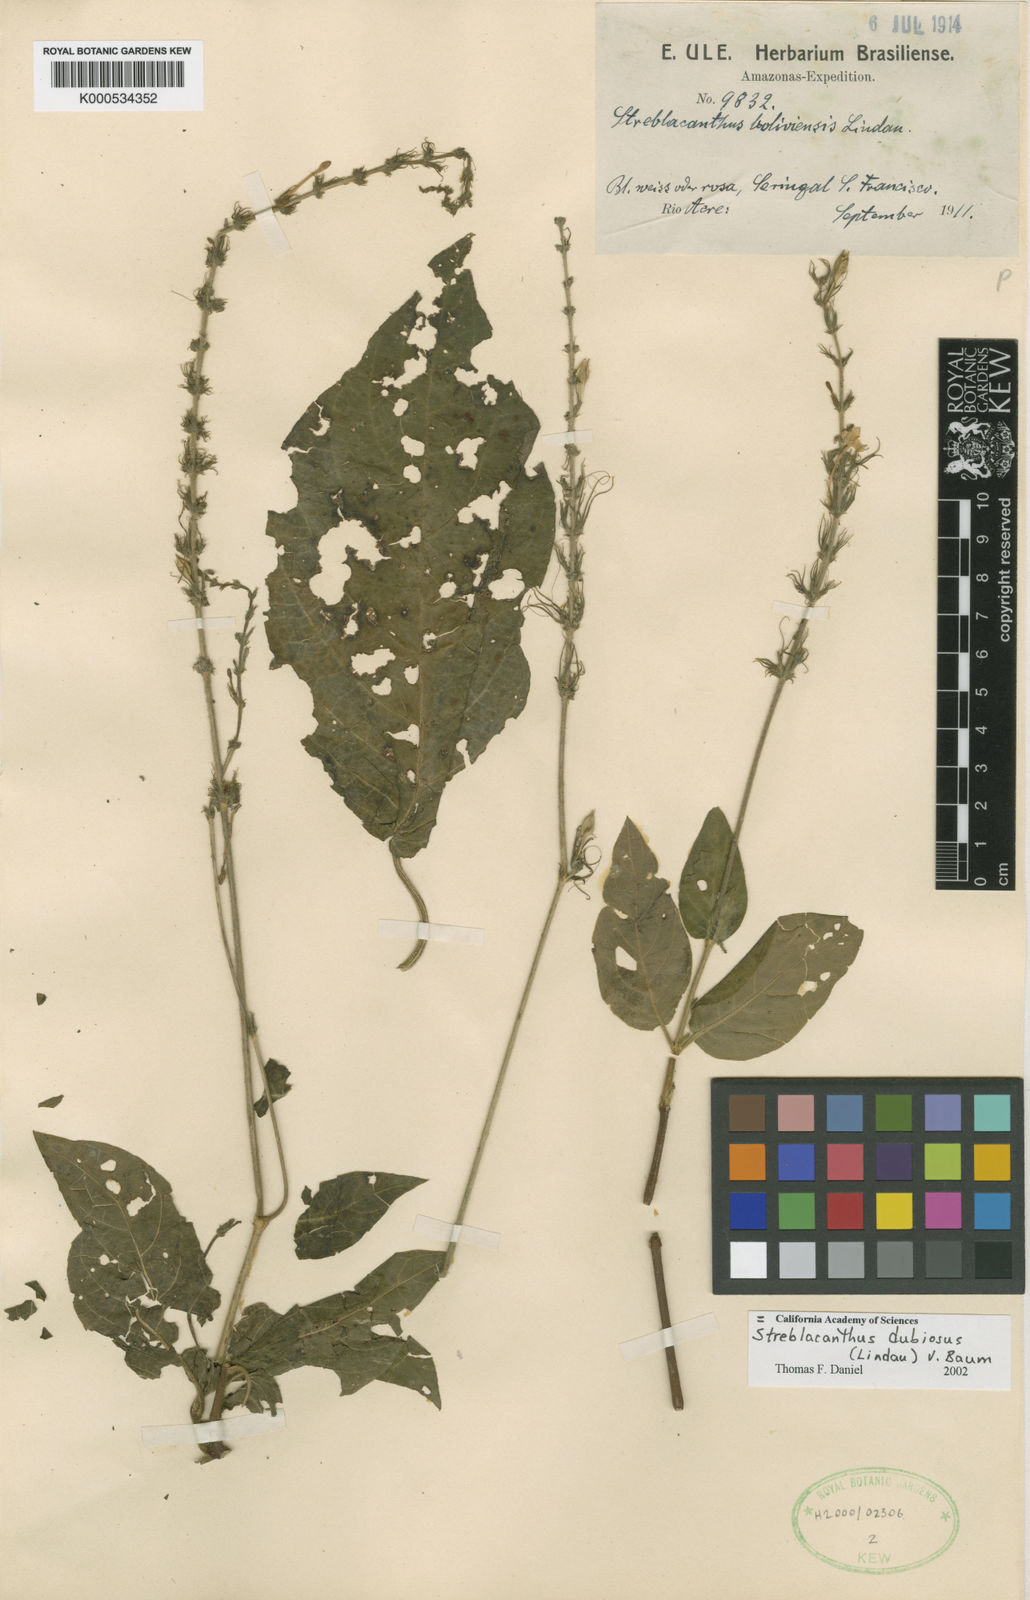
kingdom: Plantae
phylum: Tracheophyta
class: Magnoliopsida
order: Lamiales
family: Acanthaceae
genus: Pachystachys
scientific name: Pachystachys dubiosa
